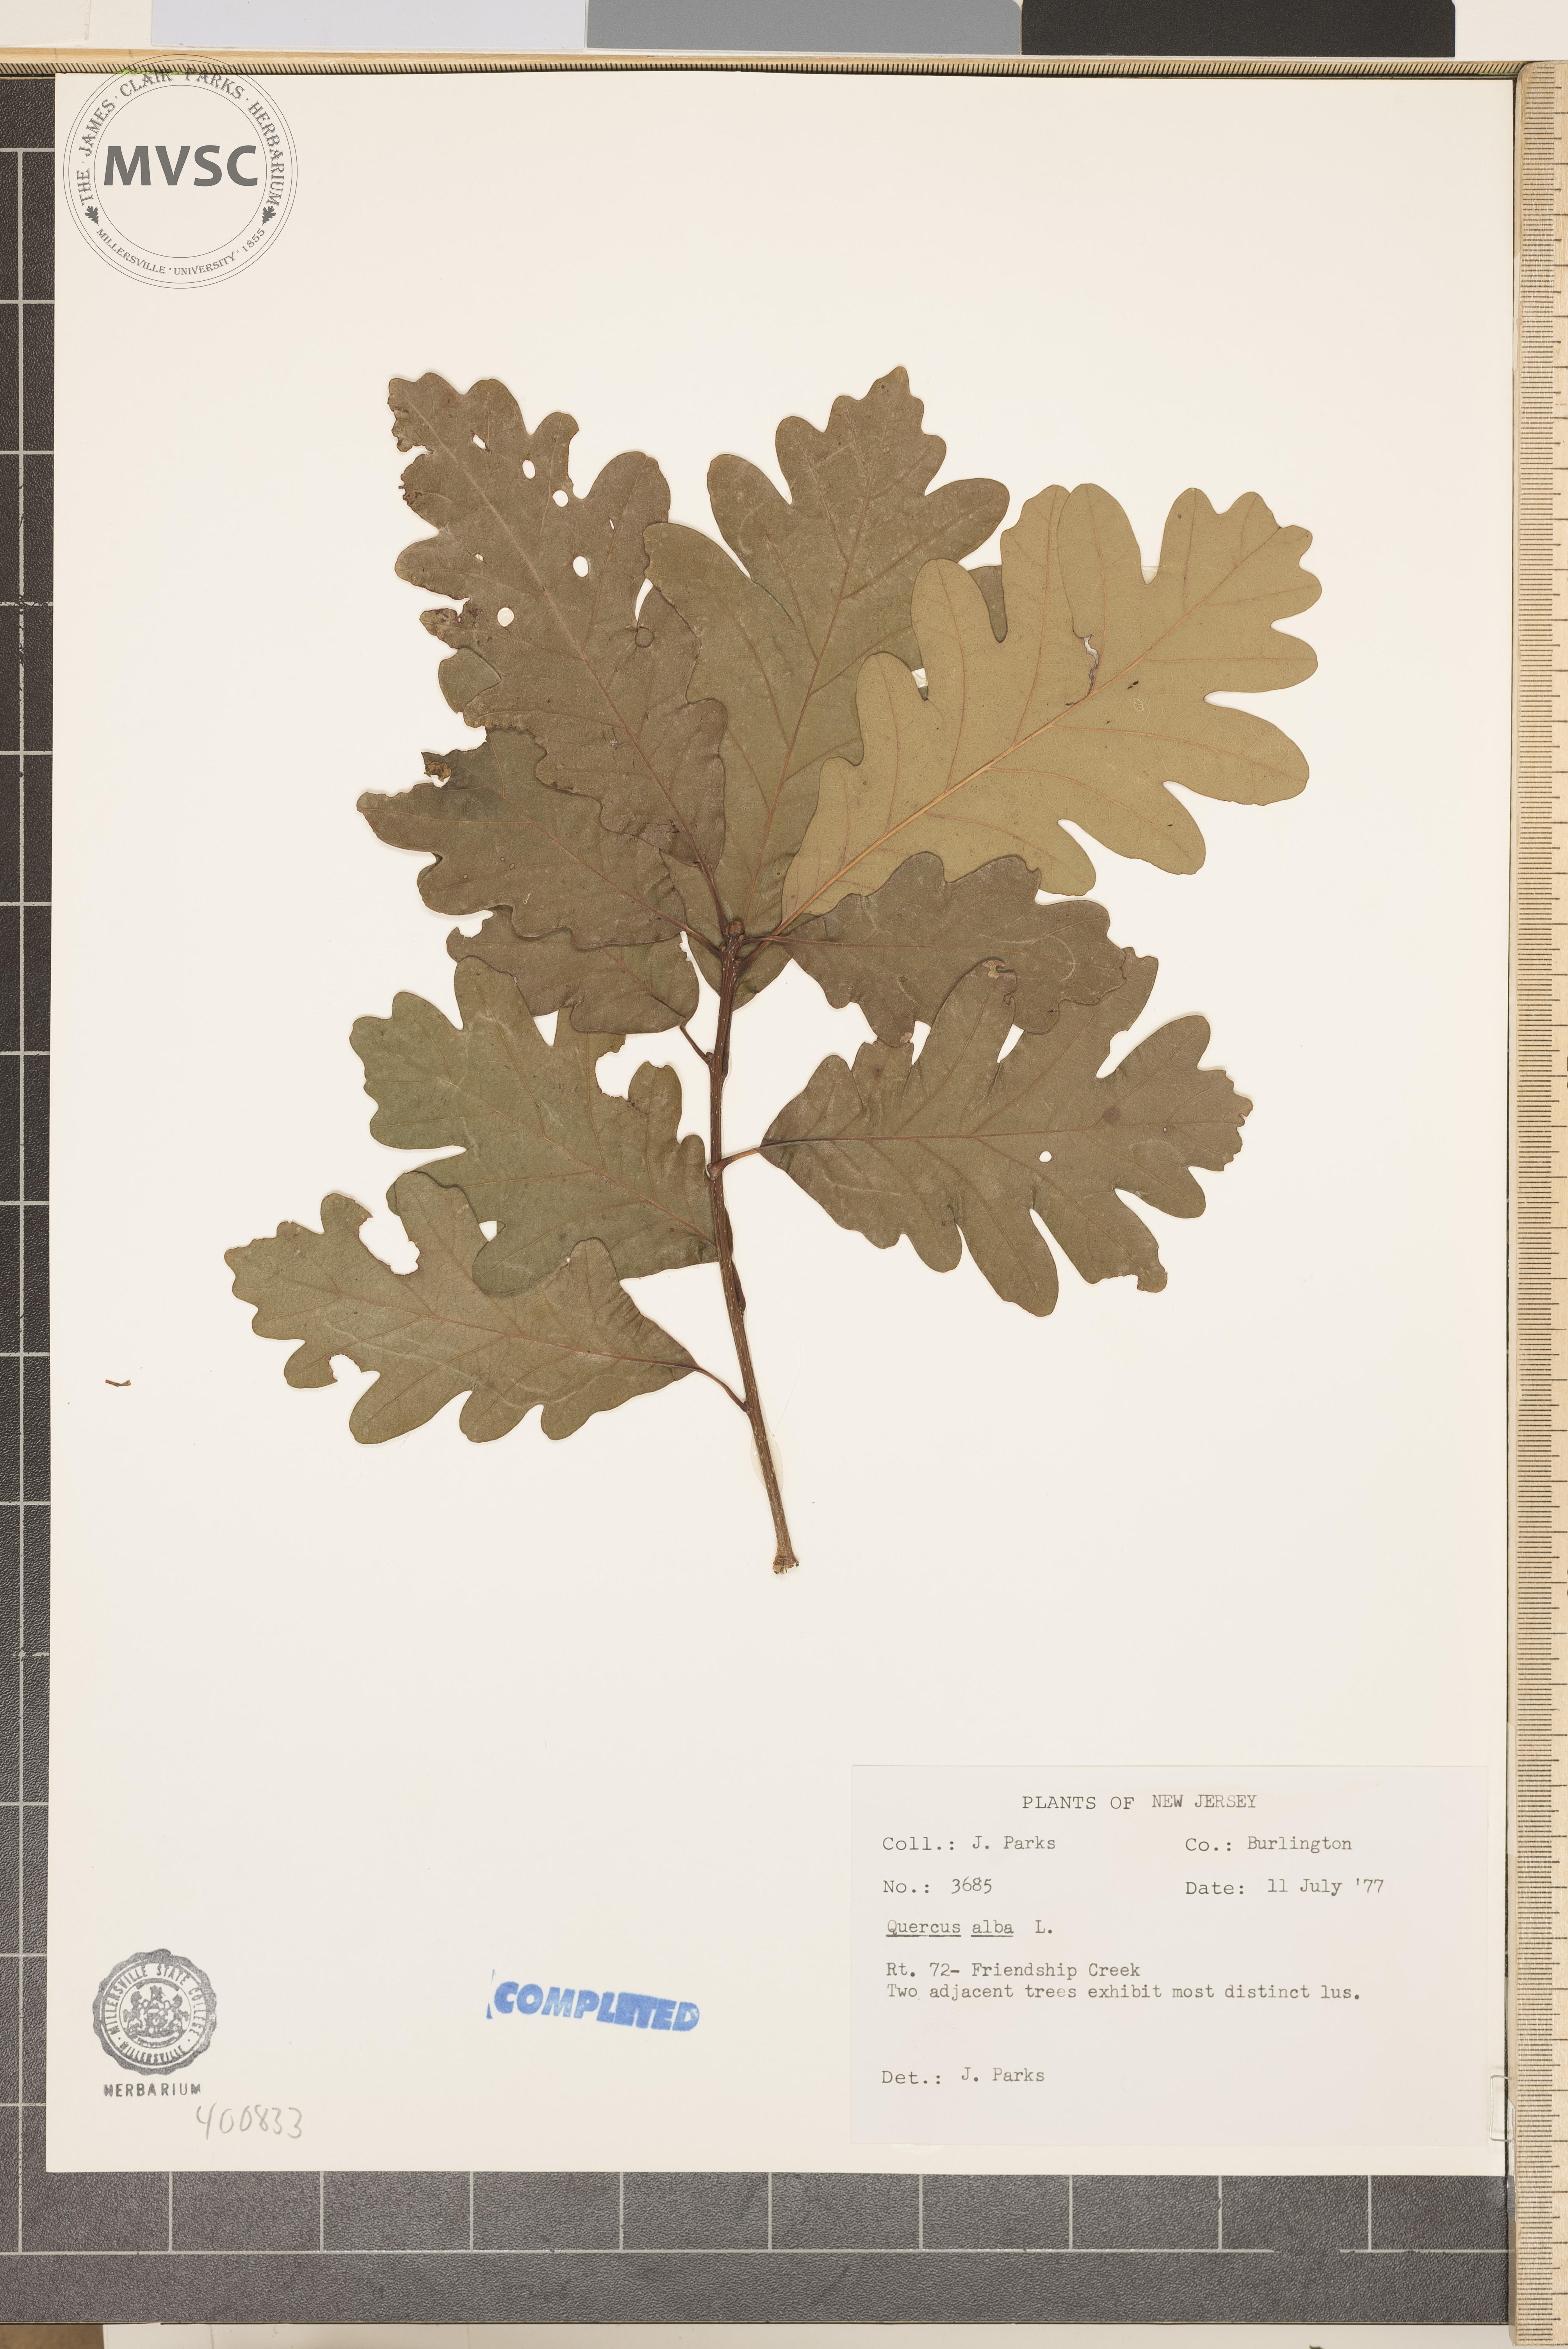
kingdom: Plantae
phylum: Tracheophyta
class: Magnoliopsida
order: Fagales
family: Fagaceae
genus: Quercus
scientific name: Quercus alba
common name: white oak
